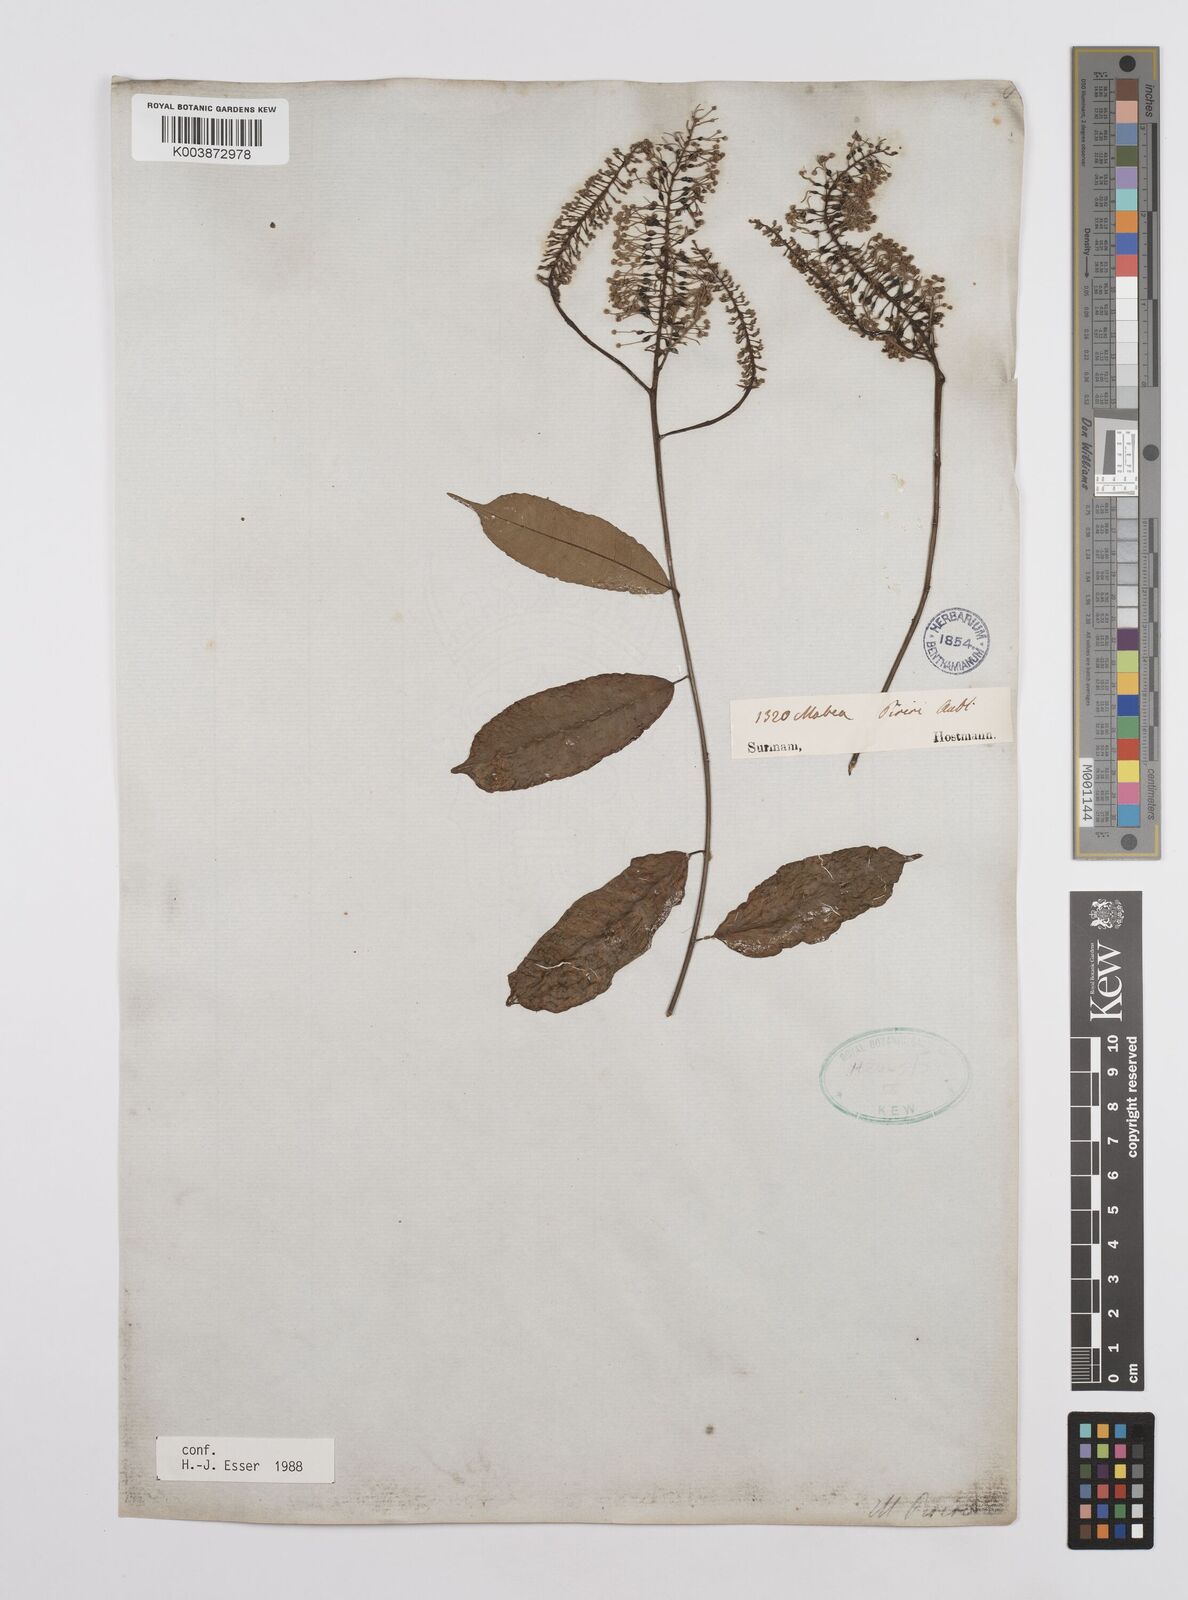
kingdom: Plantae
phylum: Tracheophyta
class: Magnoliopsida
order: Malpighiales
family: Euphorbiaceae
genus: Mabea
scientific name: Mabea piriri
